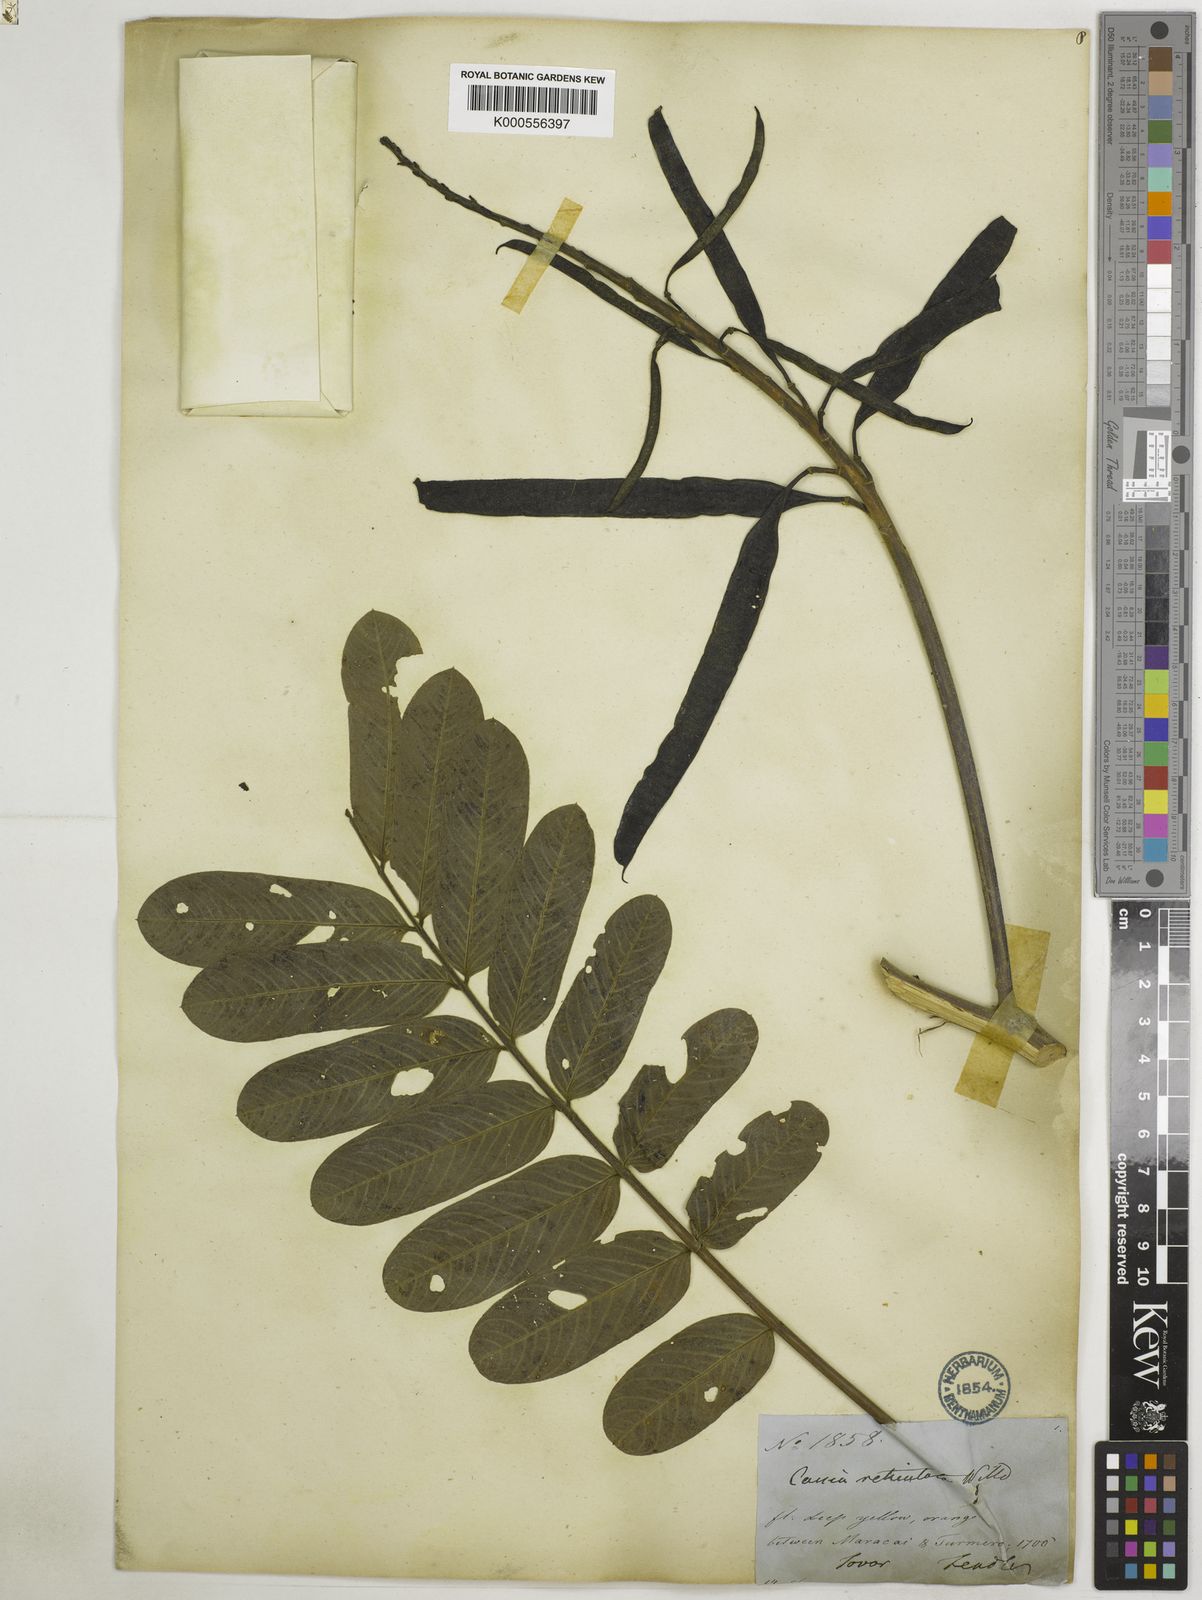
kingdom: Plantae
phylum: Tracheophyta
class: Magnoliopsida
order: Fabales
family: Fabaceae
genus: Senna
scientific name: Senna reticulata
